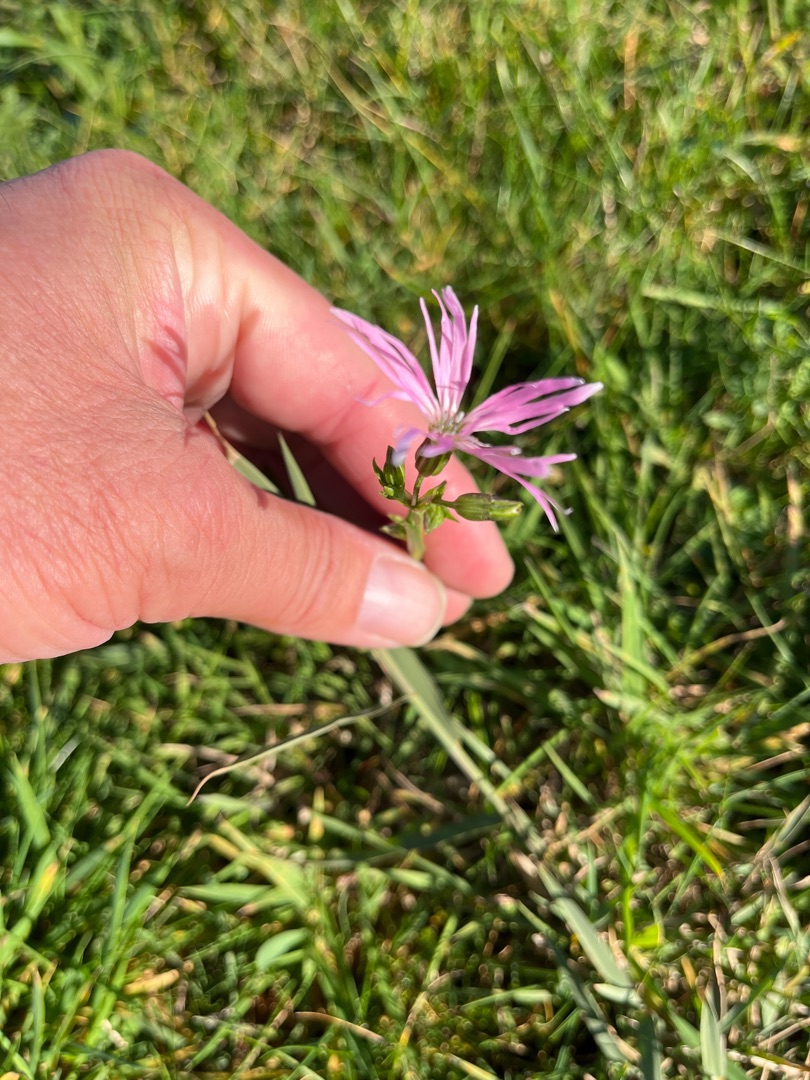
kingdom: Plantae
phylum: Tracheophyta
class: Magnoliopsida
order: Caryophyllales
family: Caryophyllaceae
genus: Silene
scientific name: Silene flos-cuculi
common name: Trævlekrone
